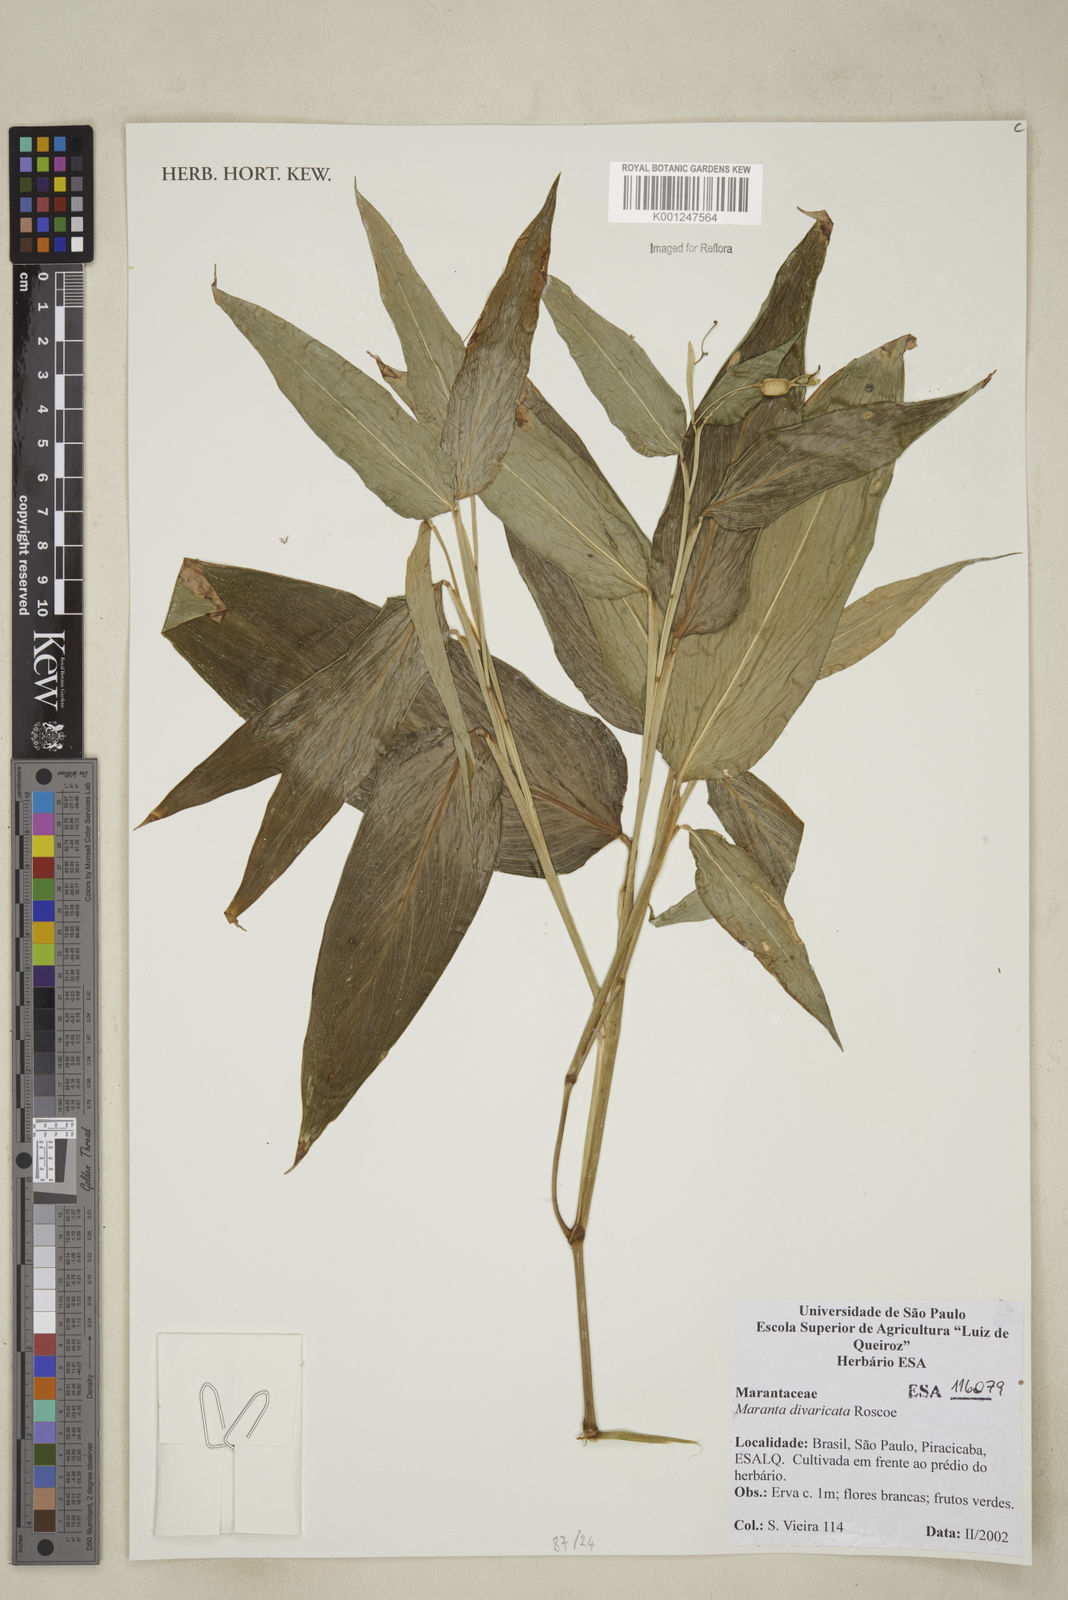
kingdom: Plantae
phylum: Tracheophyta
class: Liliopsida
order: Zingiberales
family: Marantaceae
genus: Maranta
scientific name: Maranta divaricata
